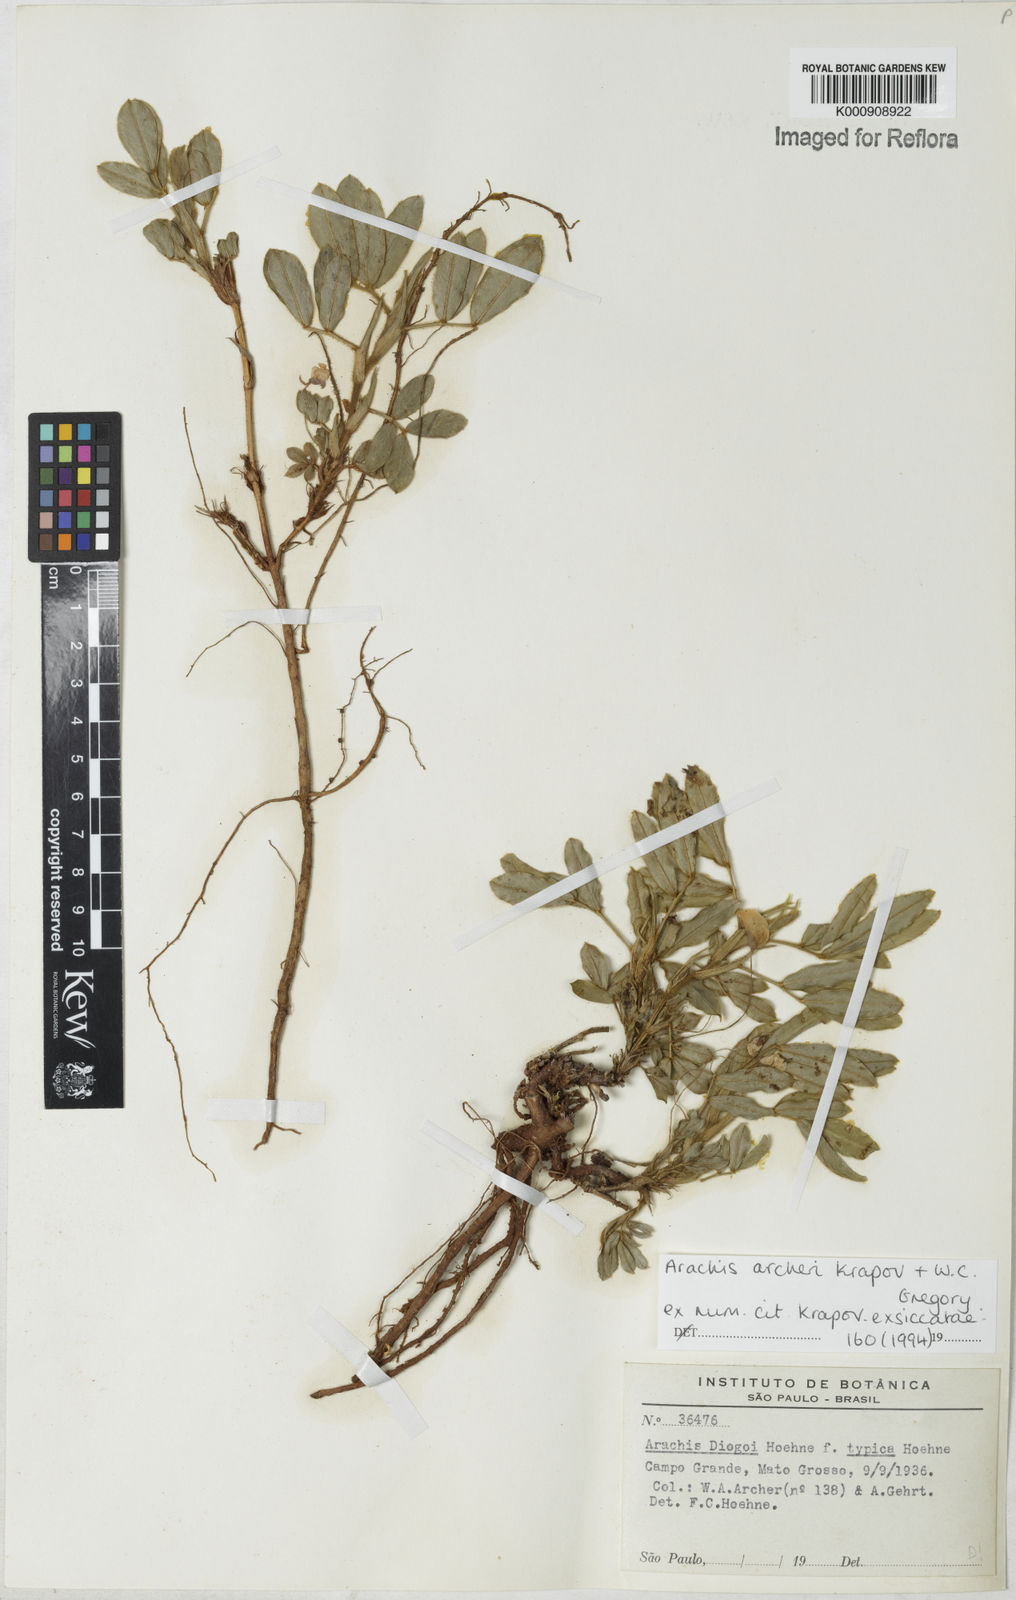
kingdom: Plantae
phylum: Tracheophyta
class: Magnoliopsida
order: Fabales
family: Fabaceae
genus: Arachis
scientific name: Arachis archeri
